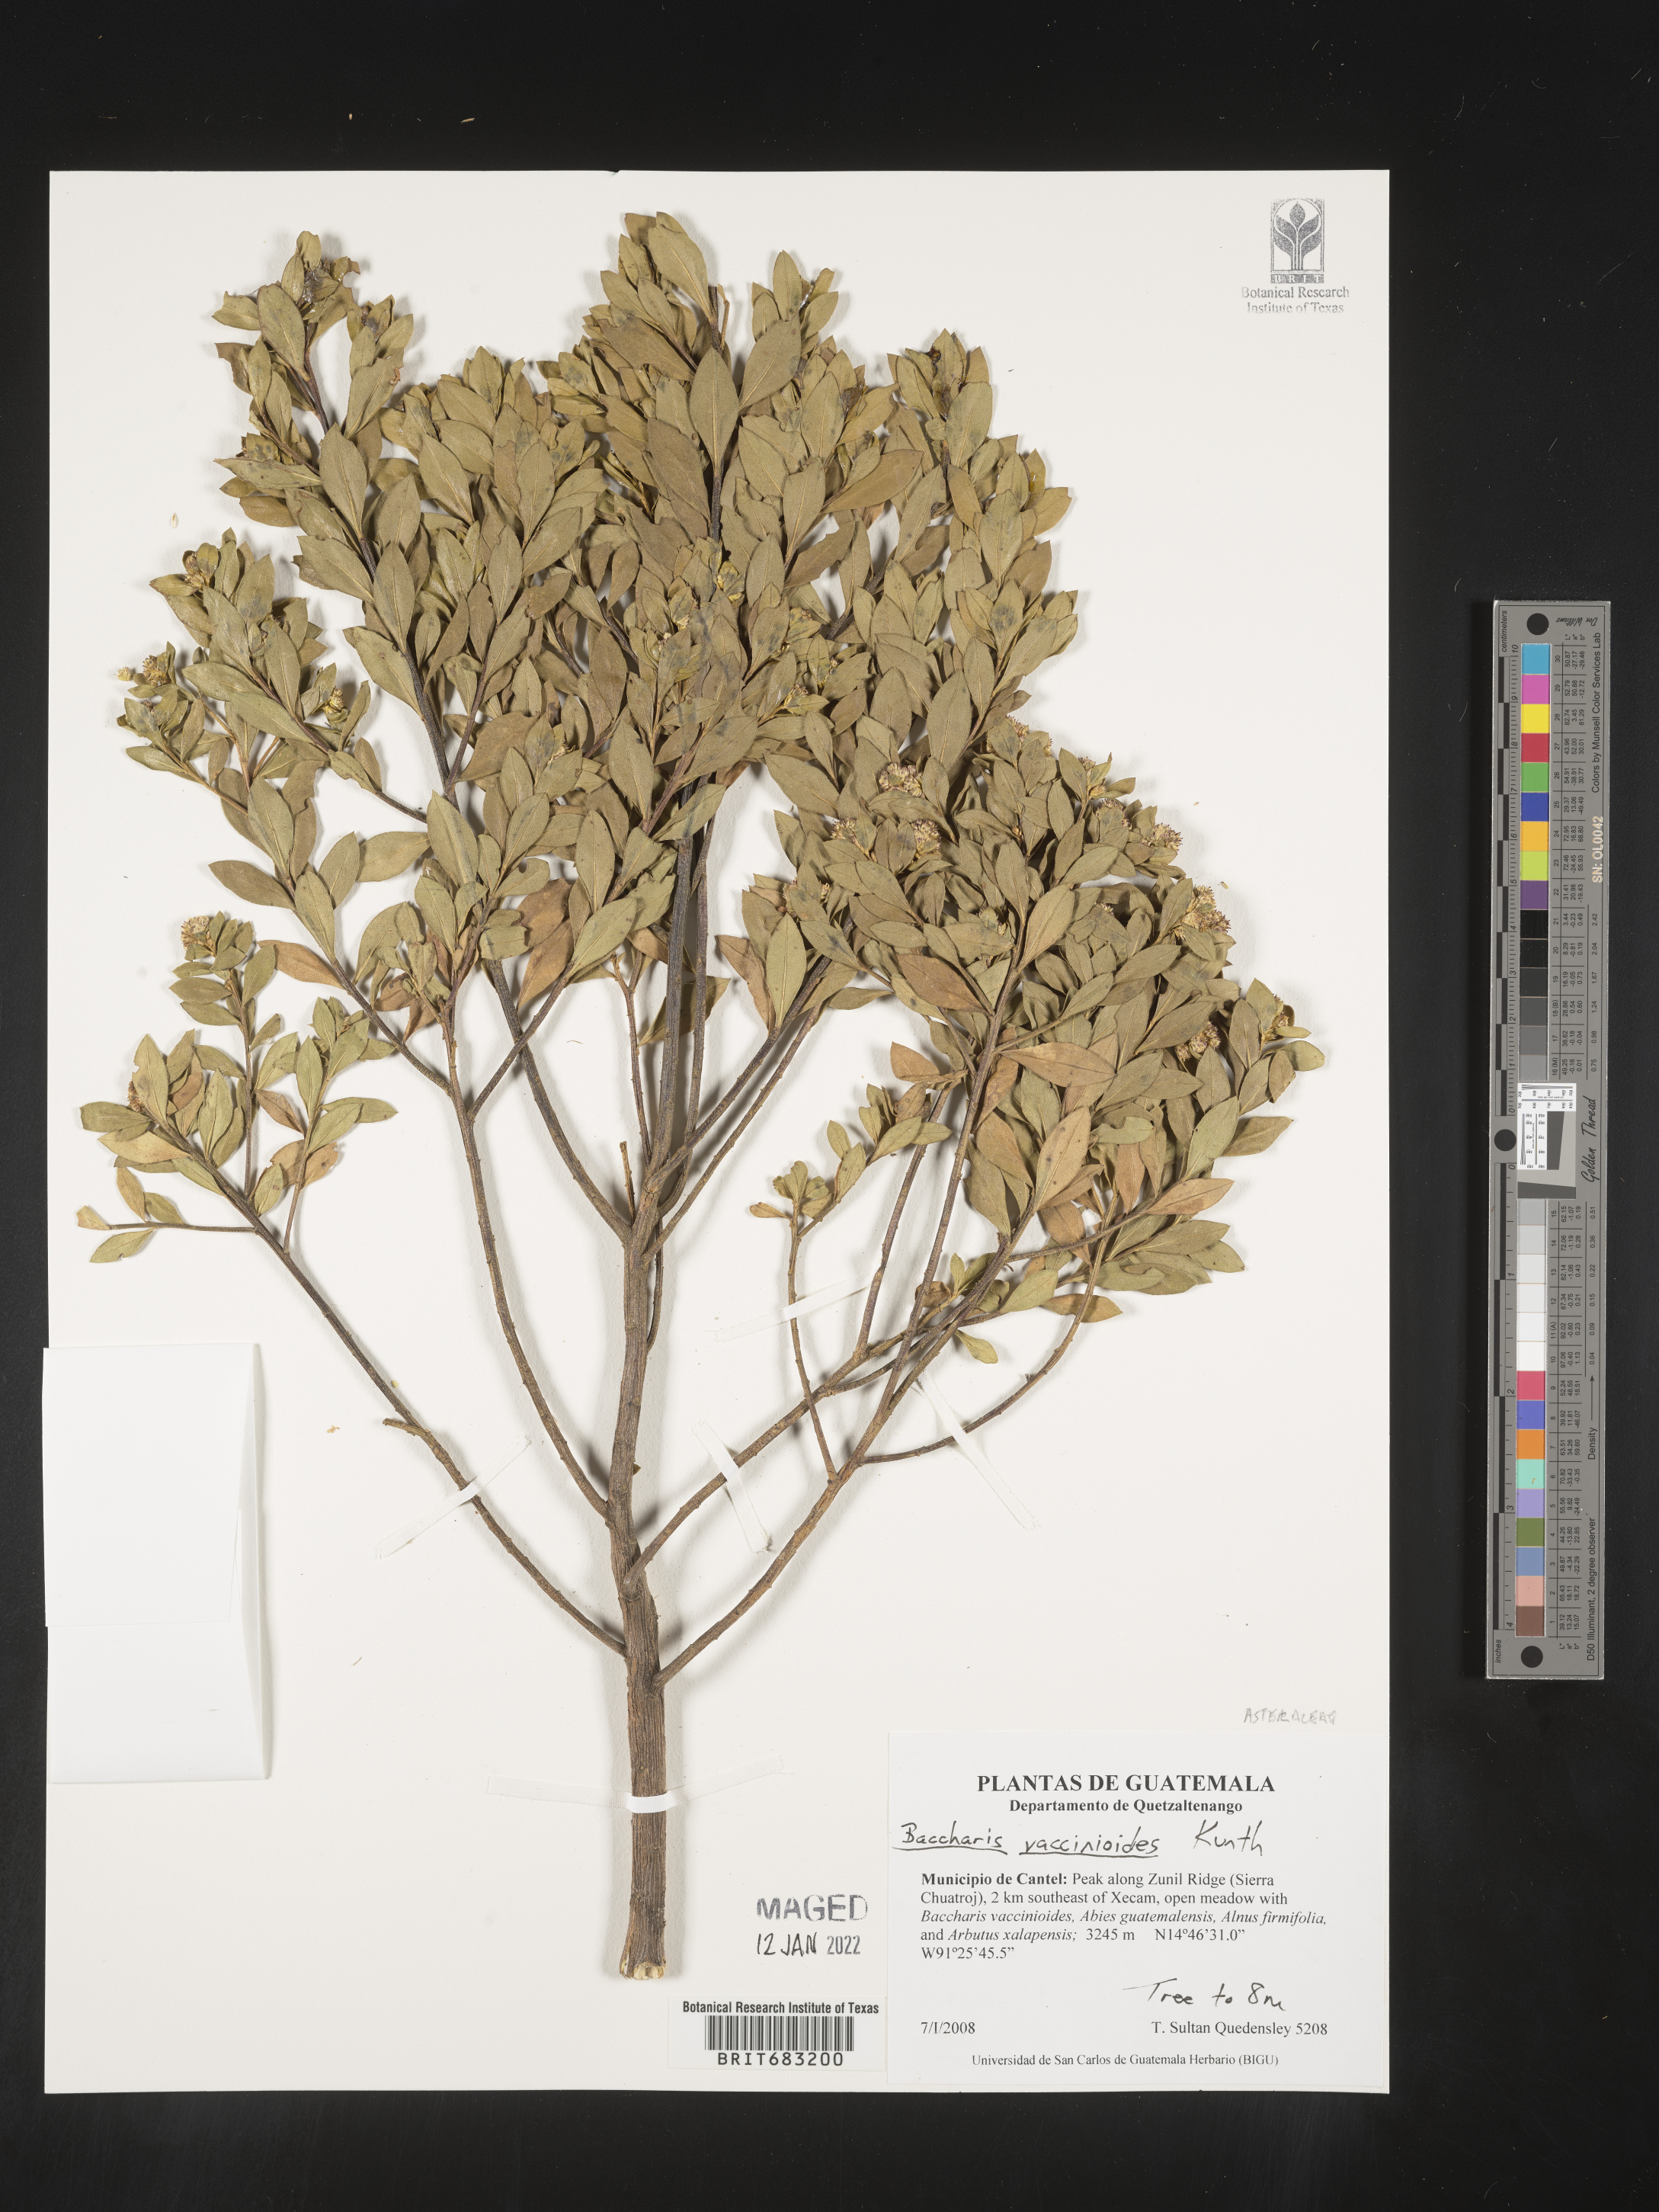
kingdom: Plantae
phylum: Tracheophyta
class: Magnoliopsida
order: Asterales
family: Asteraceae
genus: Baccharis
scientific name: Baccharis
